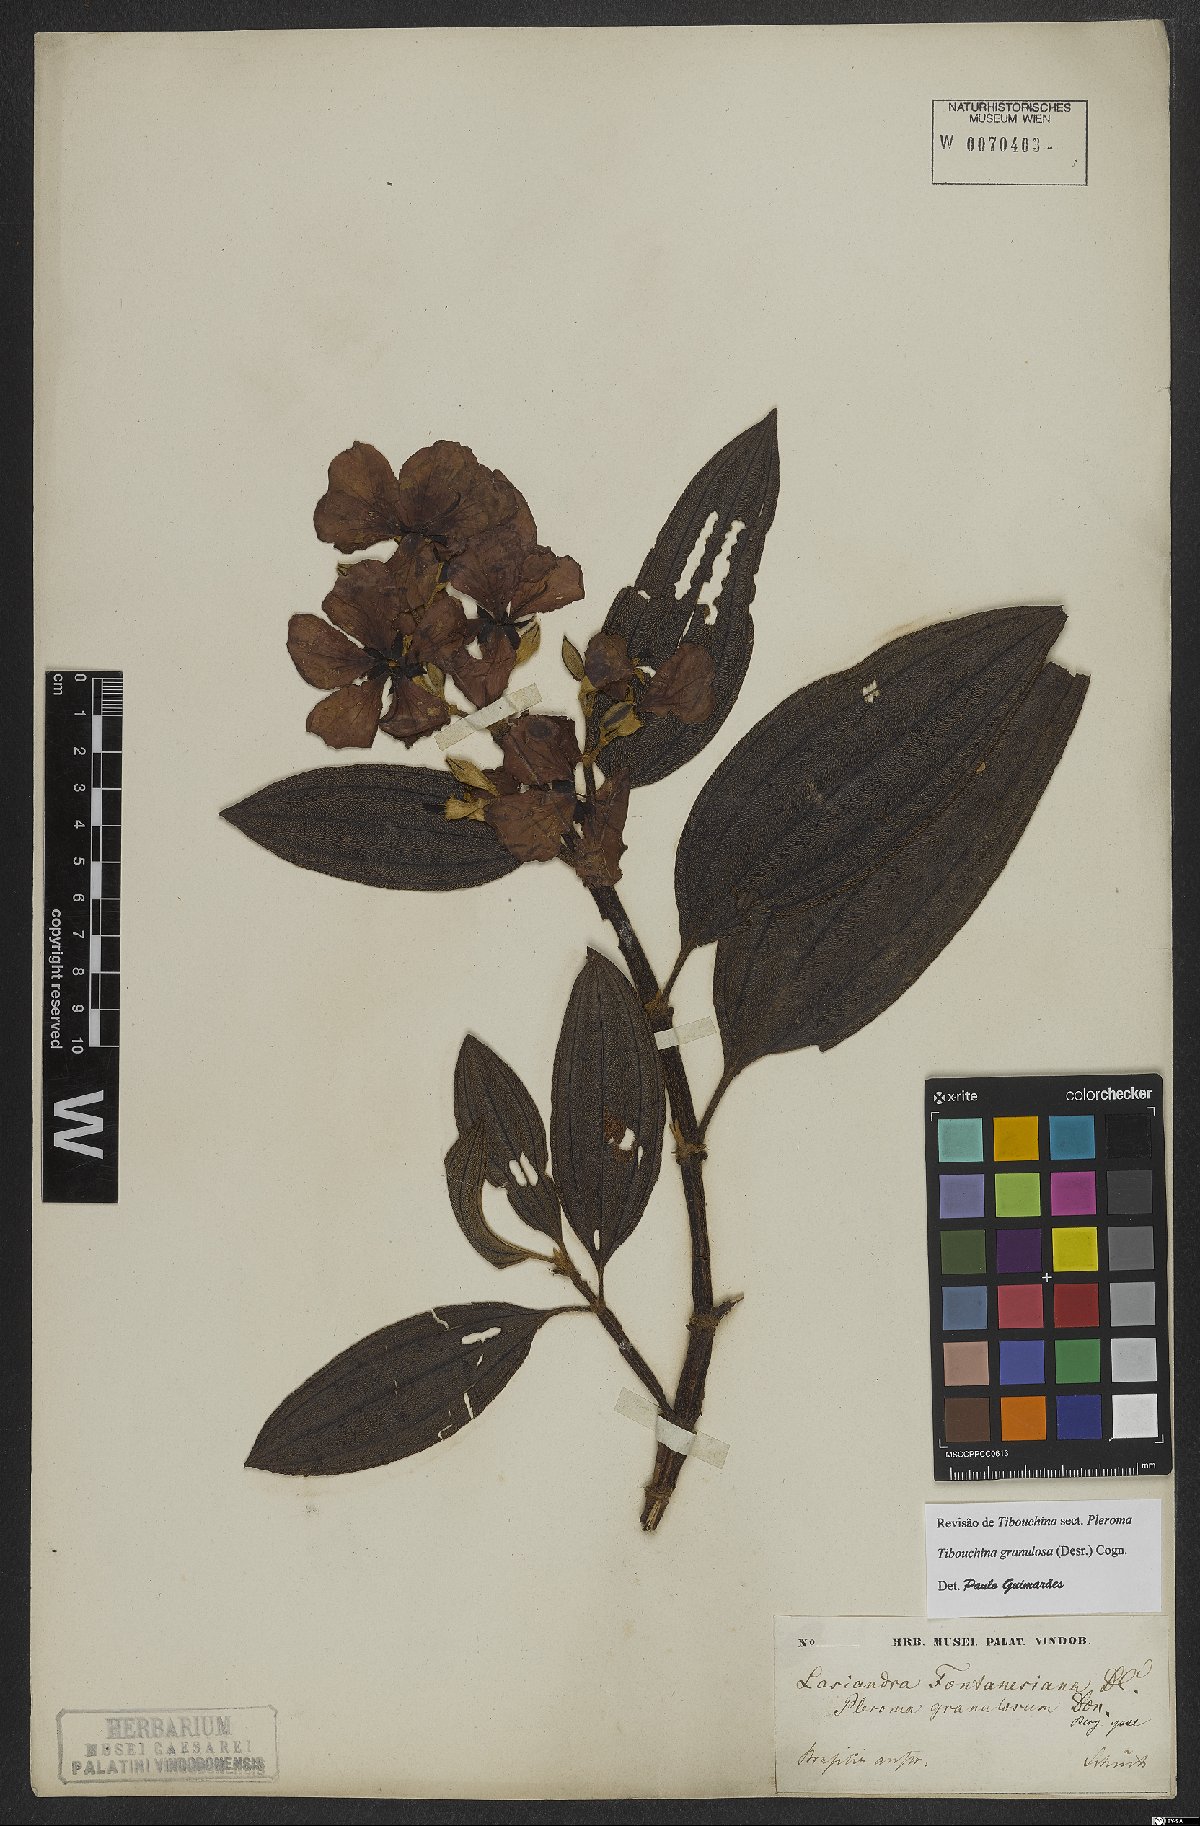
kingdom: Plantae
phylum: Tracheophyta
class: Magnoliopsida
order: Myrtales
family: Melastomataceae
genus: Pleroma
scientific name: Pleroma granulosum
